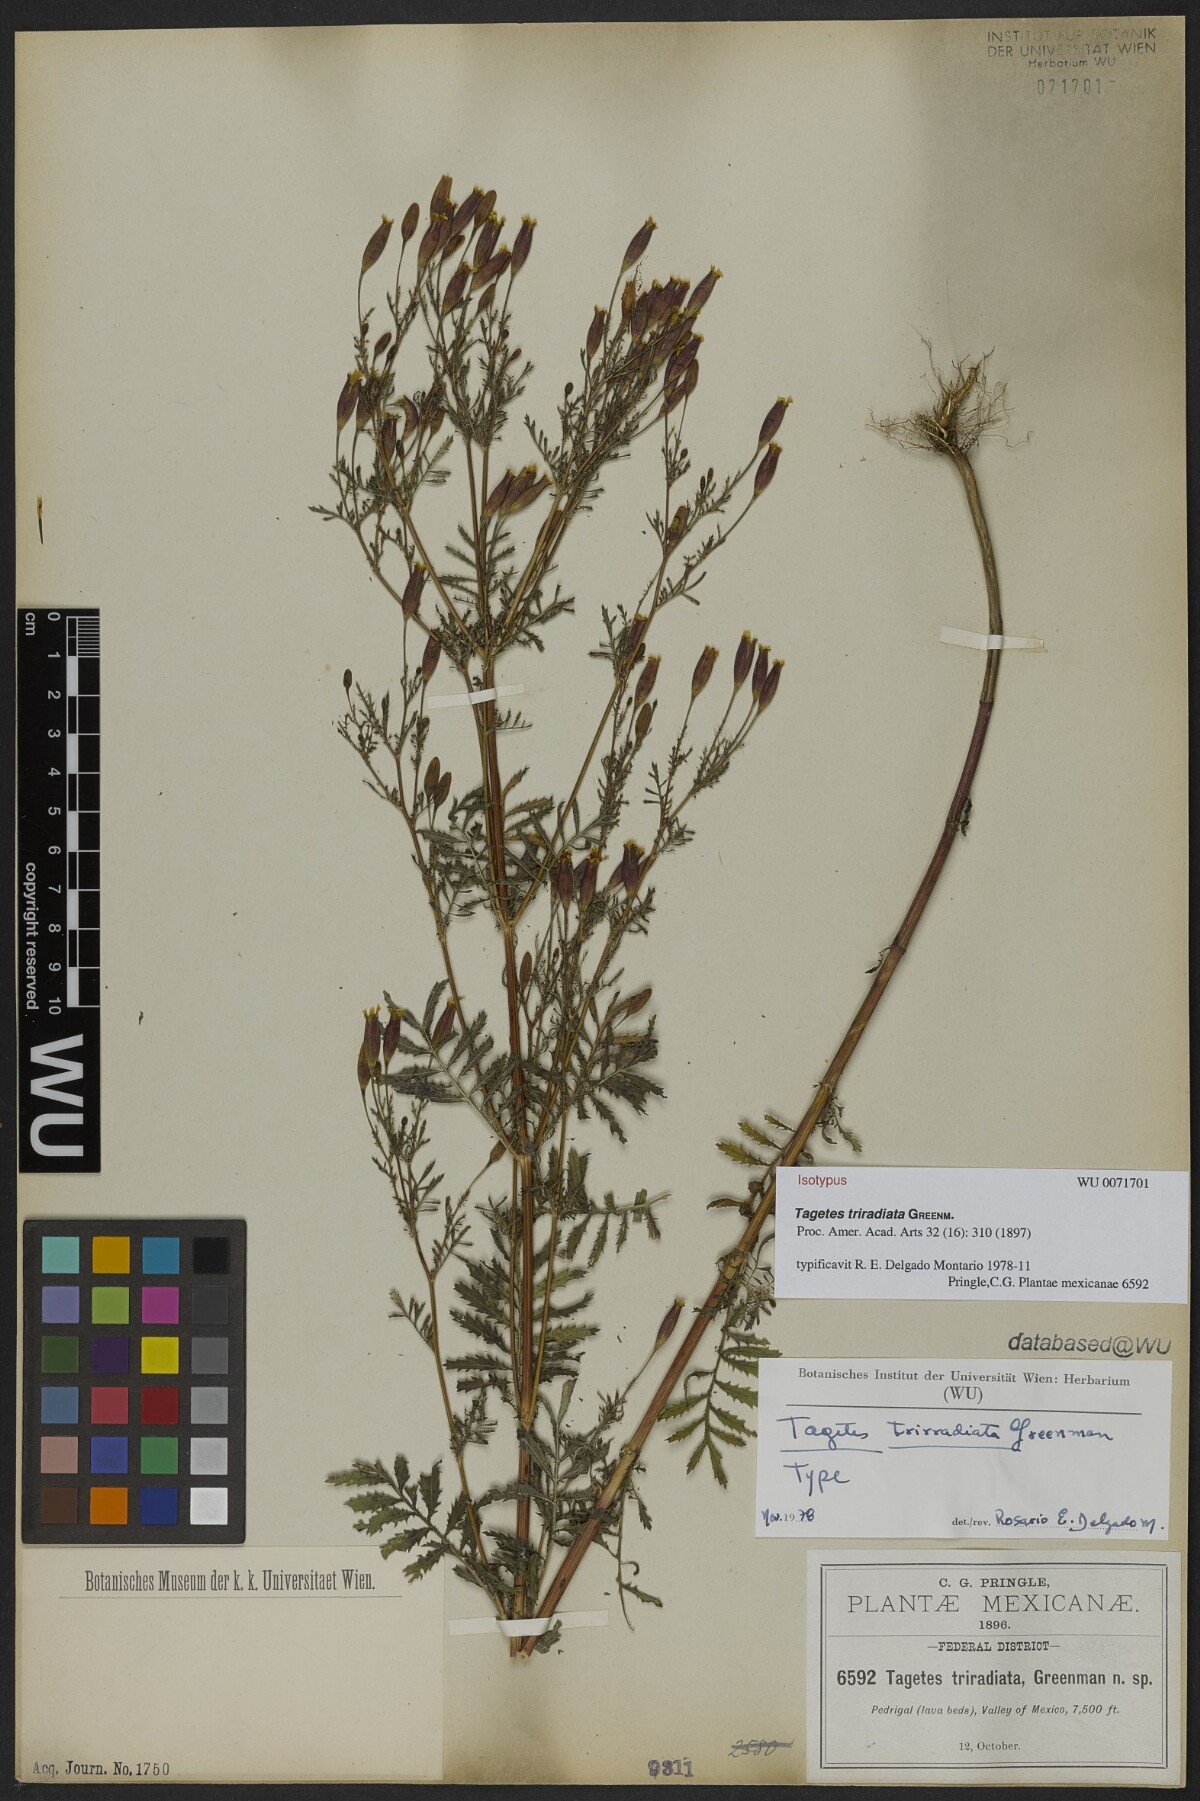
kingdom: Plantae
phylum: Tracheophyta
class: Magnoliopsida
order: Asterales
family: Asteraceae
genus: Tagetes
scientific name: Tagetes triradiata
